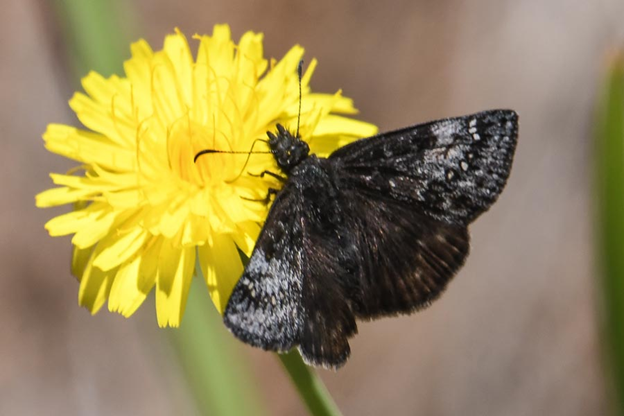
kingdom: Animalia
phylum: Arthropoda
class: Insecta
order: Lepidoptera
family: Hesperiidae
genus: Gesta
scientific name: Gesta
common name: Persius Duskywing
